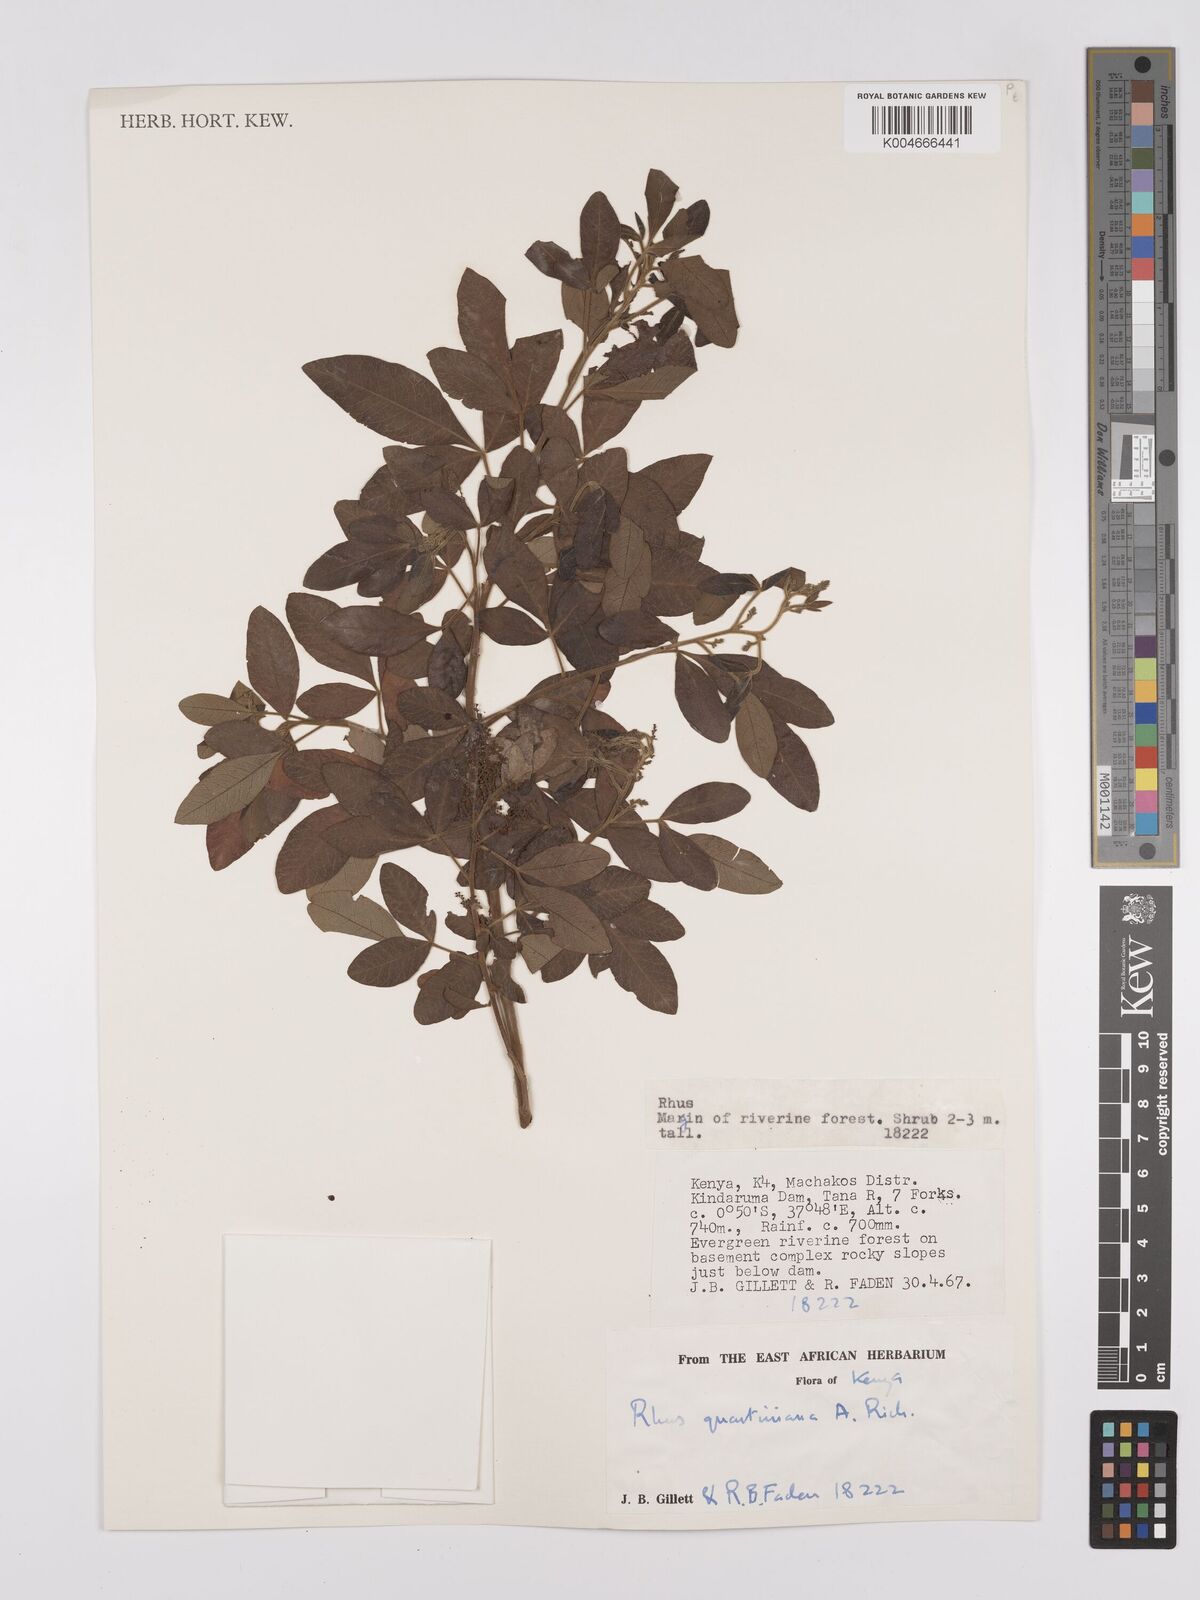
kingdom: Plantae
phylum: Tracheophyta
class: Magnoliopsida
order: Sapindales
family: Anacardiaceae
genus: Searsia
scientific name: Searsia quartiniana
